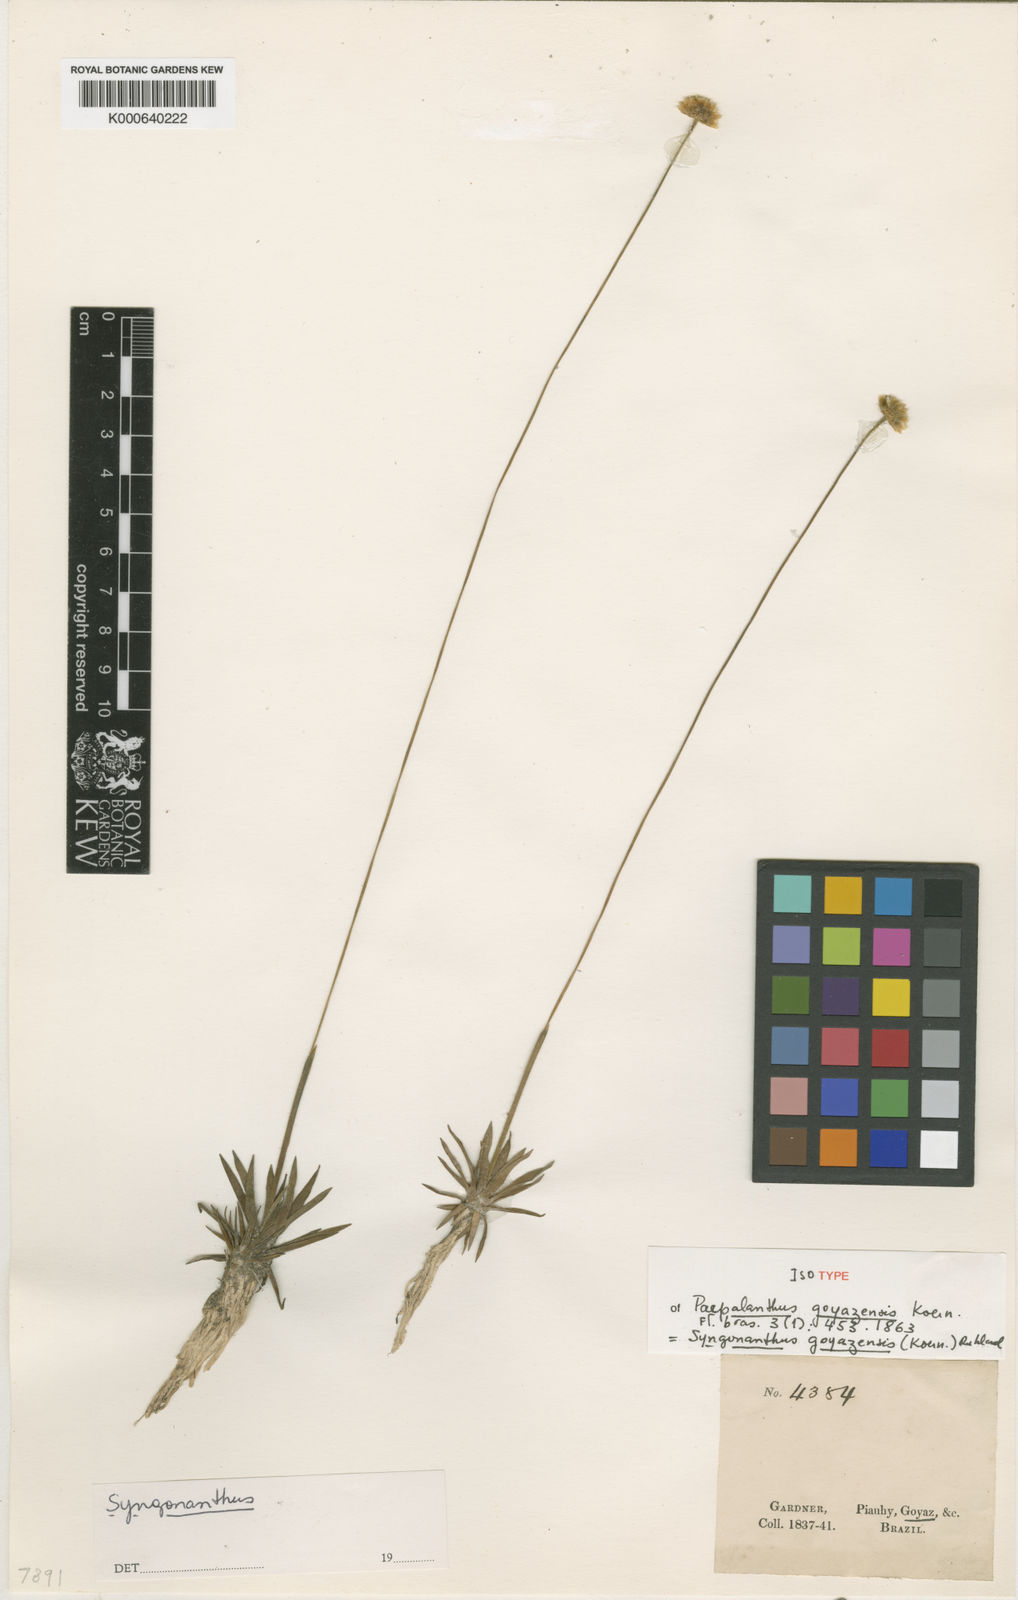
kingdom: Plantae
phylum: Tracheophyta
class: Liliopsida
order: Poales
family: Eriocaulaceae
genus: Syngonanthus
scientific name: Syngonanthus
